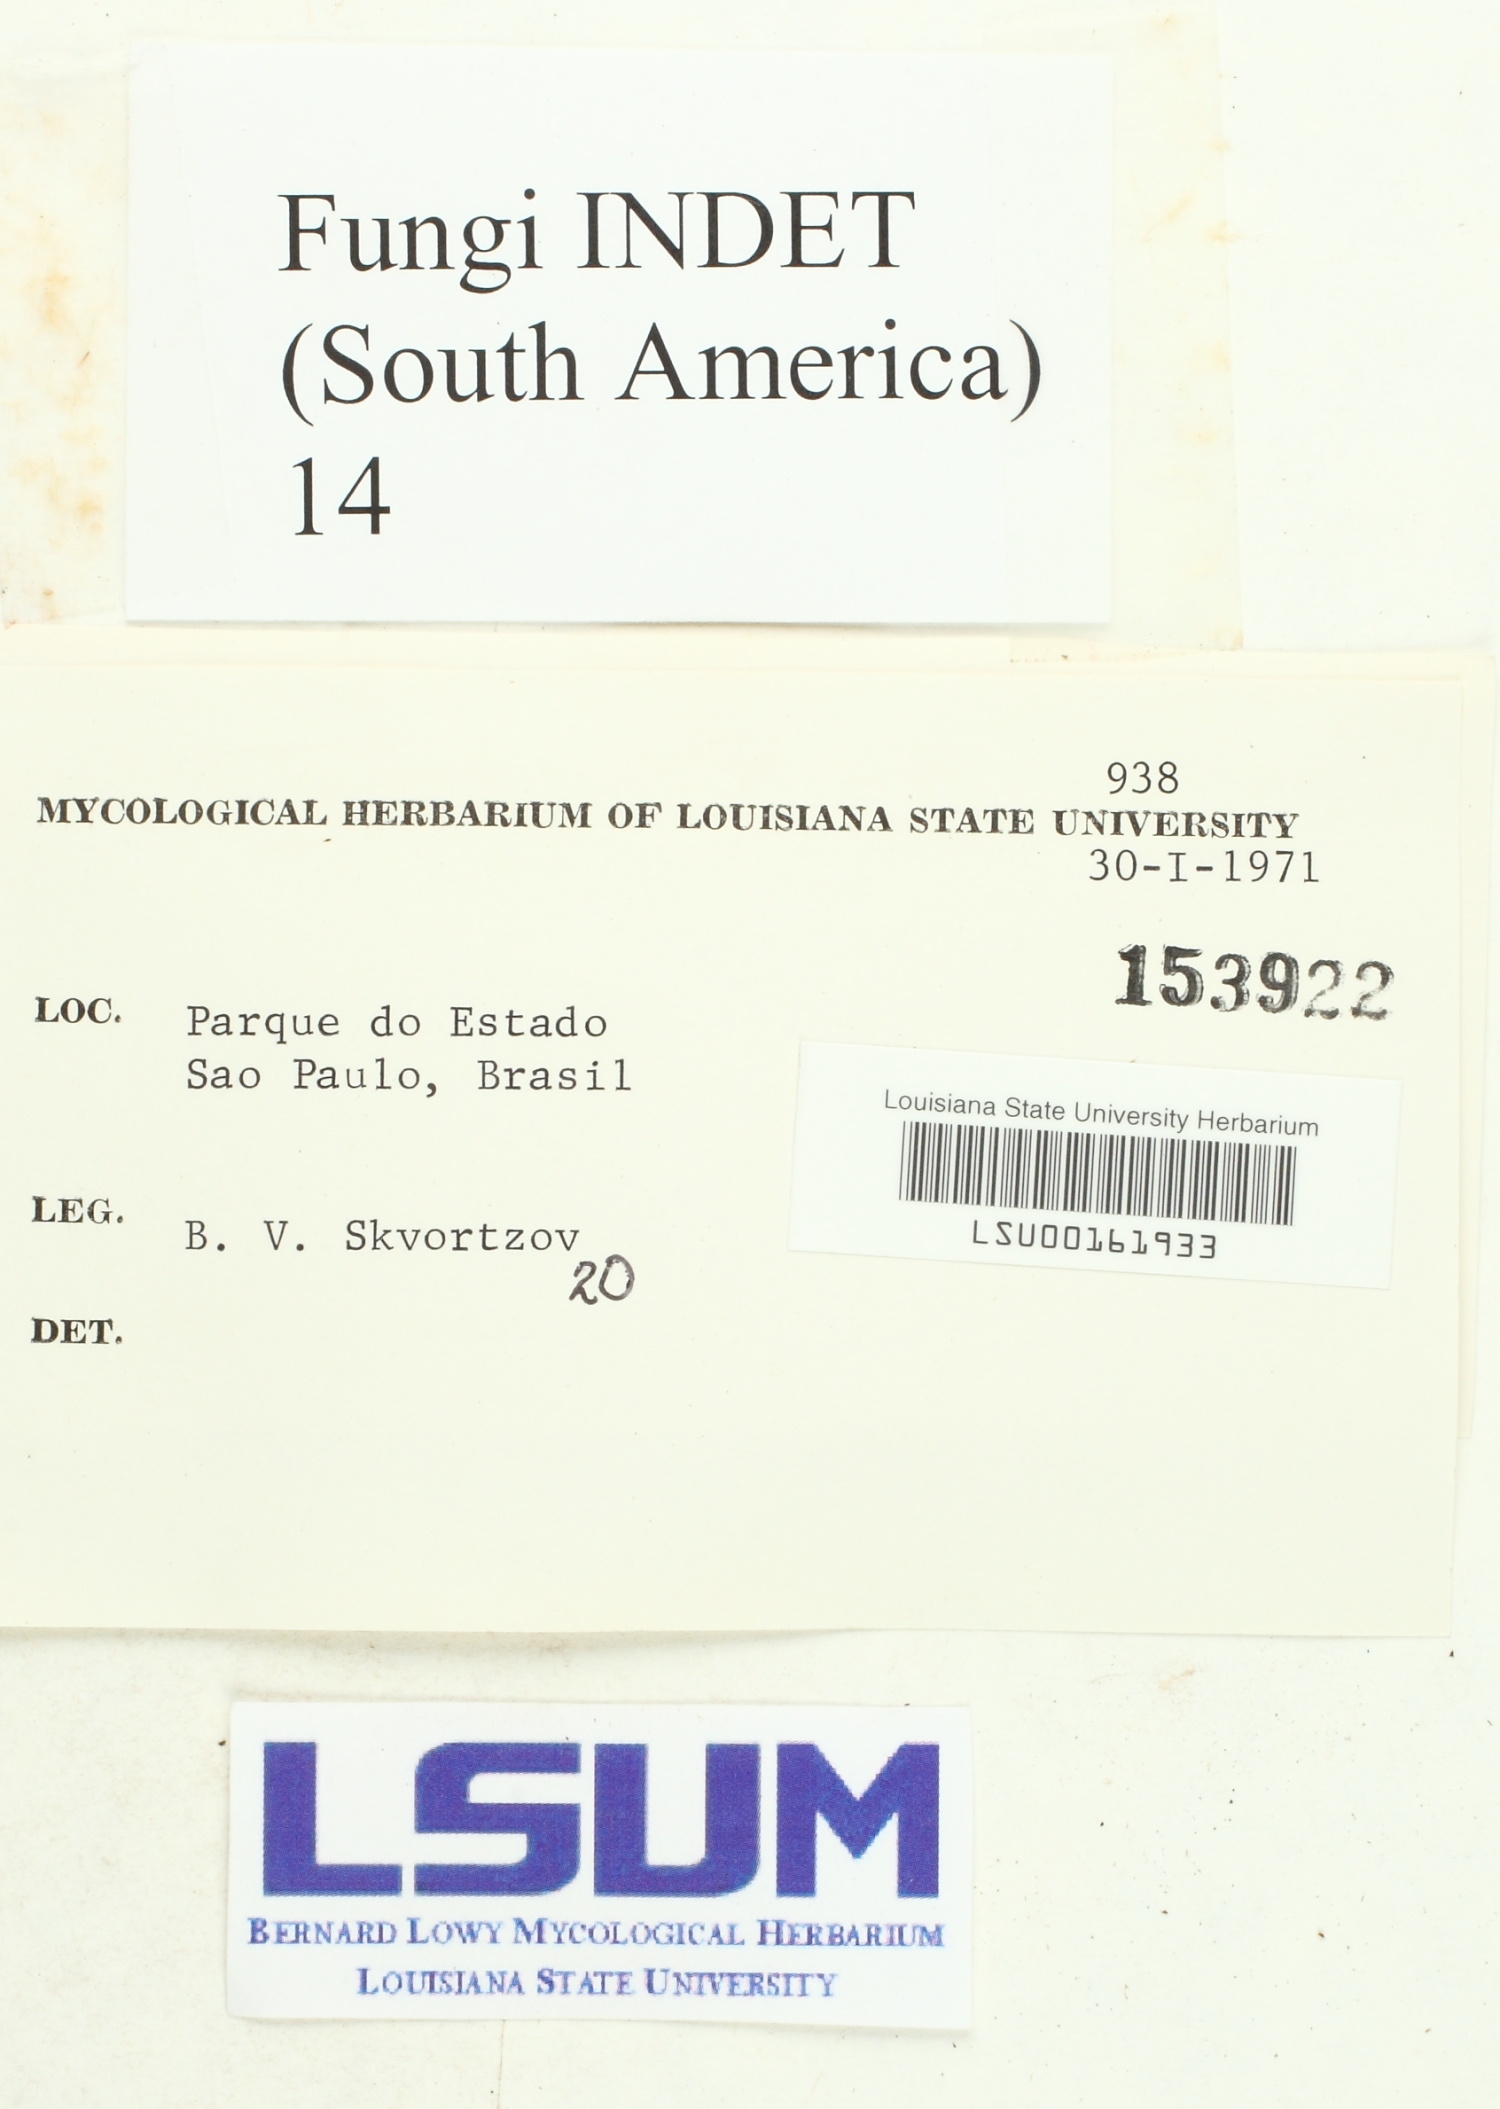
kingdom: Fungi
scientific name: Fungi
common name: Fungi
